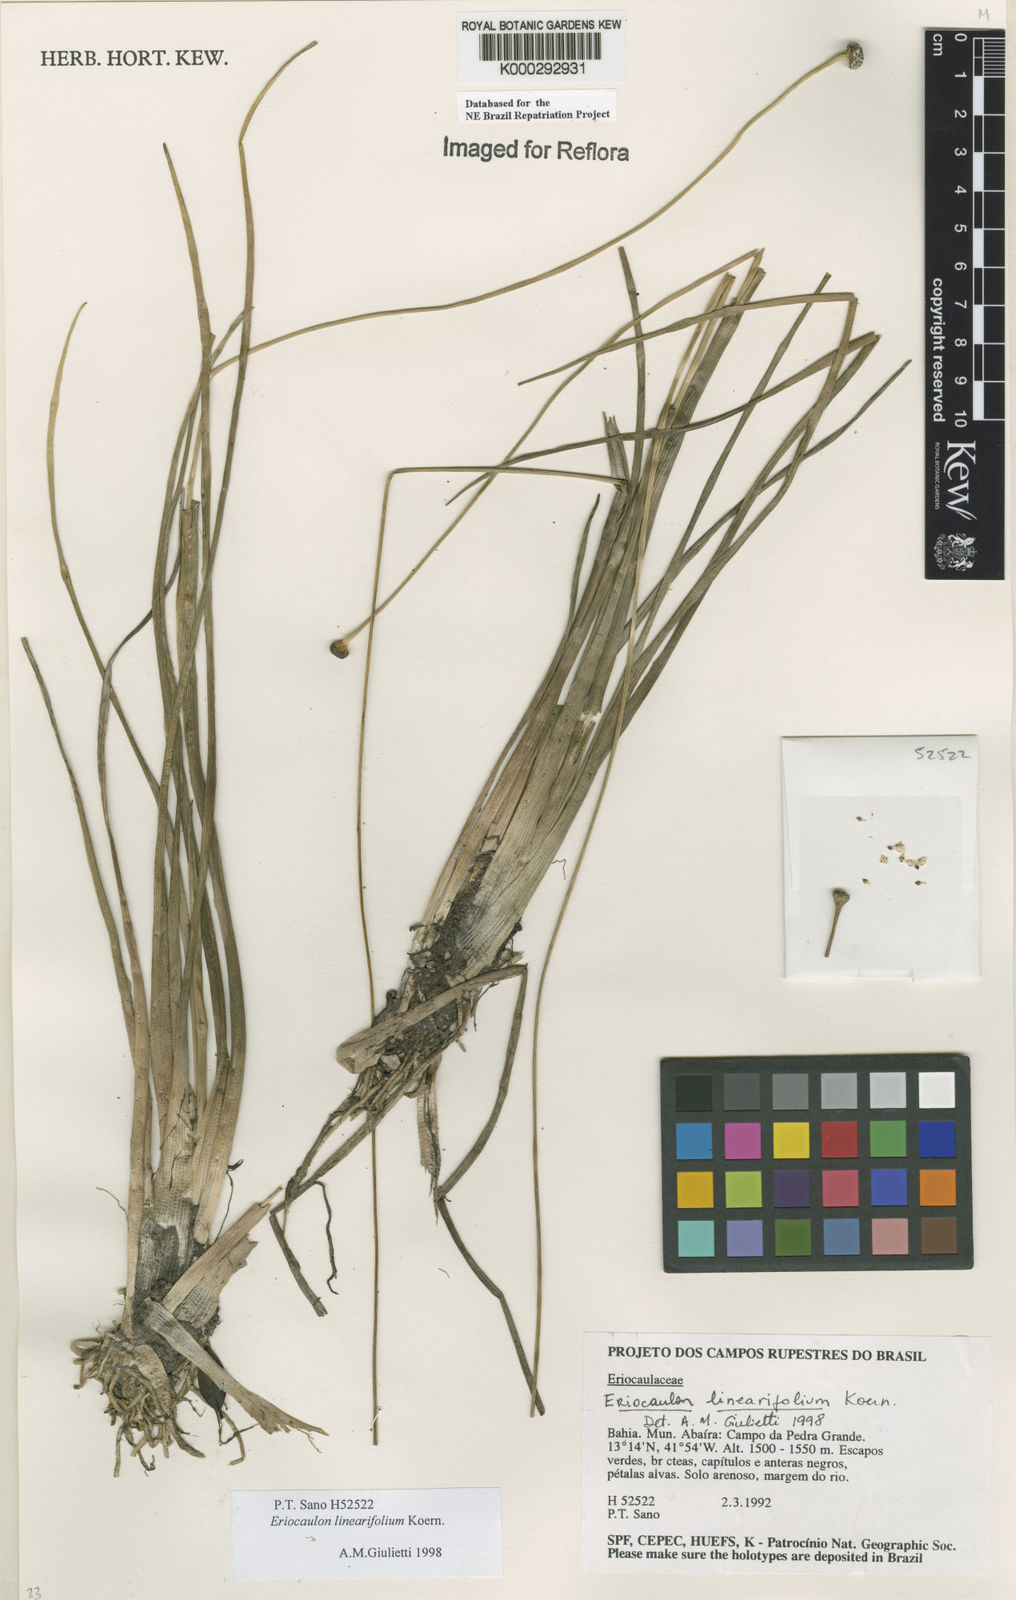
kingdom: Plantae
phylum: Tracheophyta
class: Liliopsida
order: Poales
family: Eriocaulaceae
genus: Eriocaulon
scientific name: Eriocaulon
